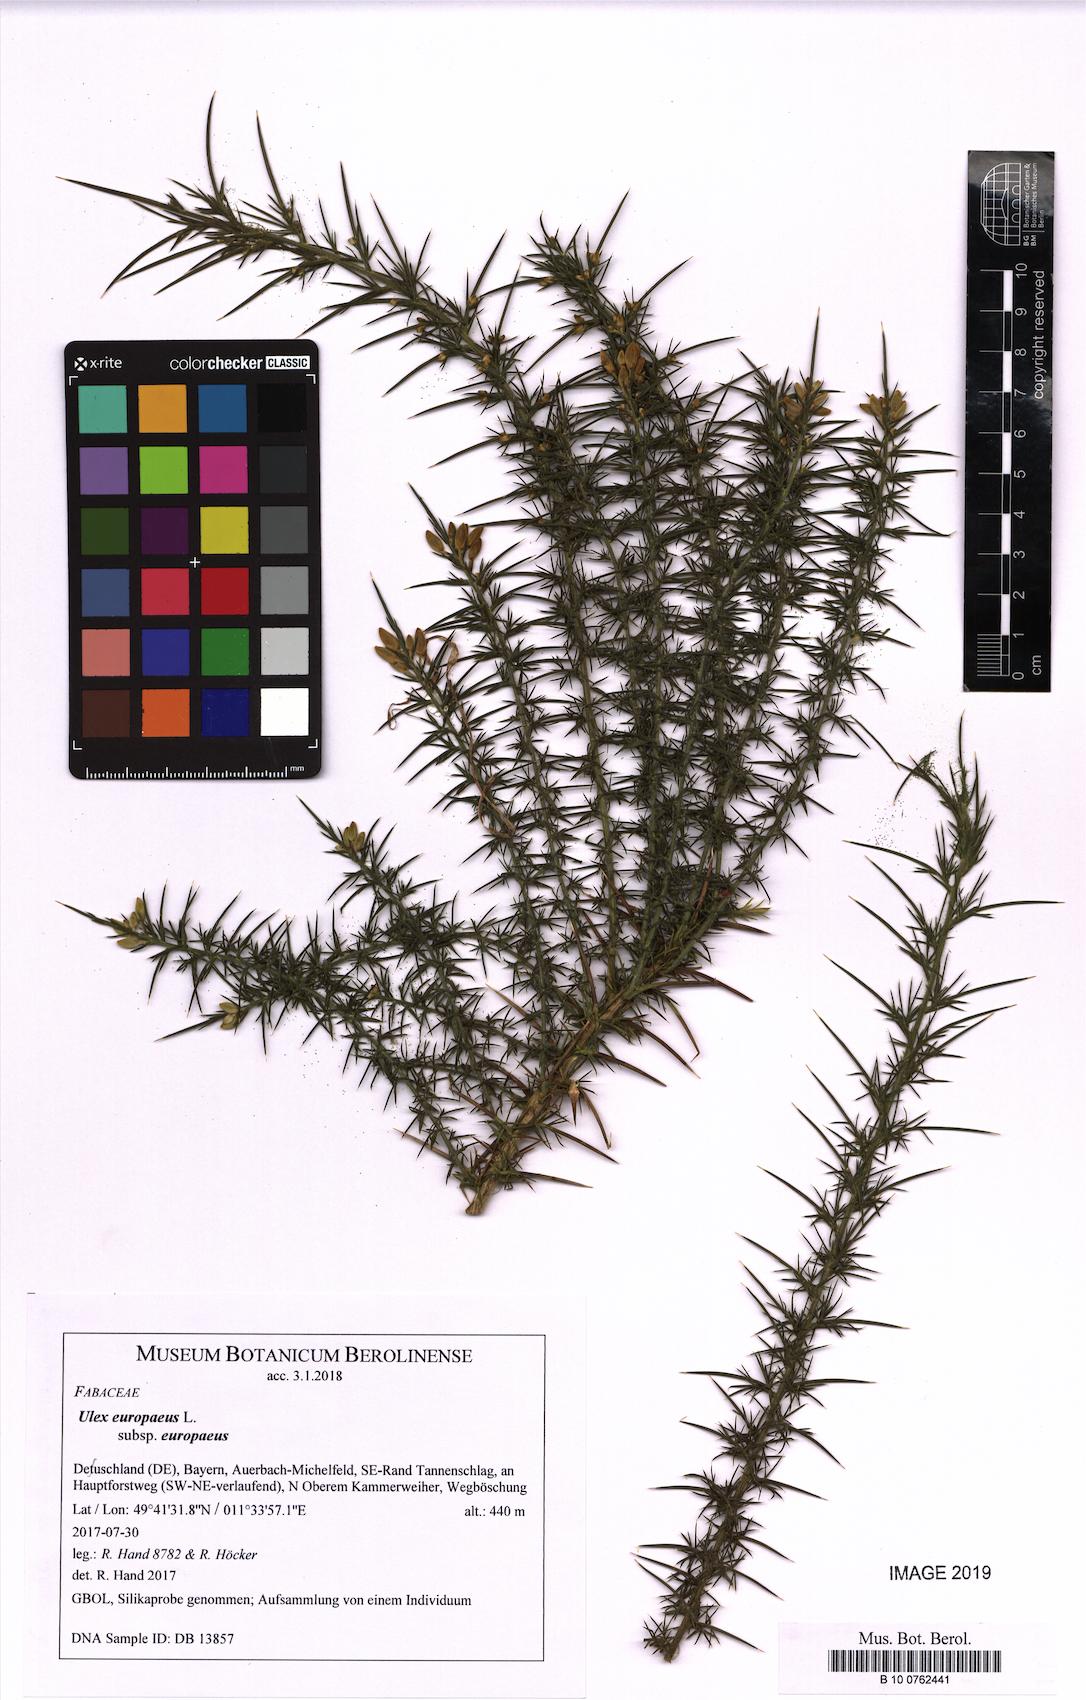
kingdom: Plantae
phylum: Tracheophyta
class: Magnoliopsida
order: Fabales
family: Fabaceae
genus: Ulex
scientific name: Ulex europaeus
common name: Common gorse
